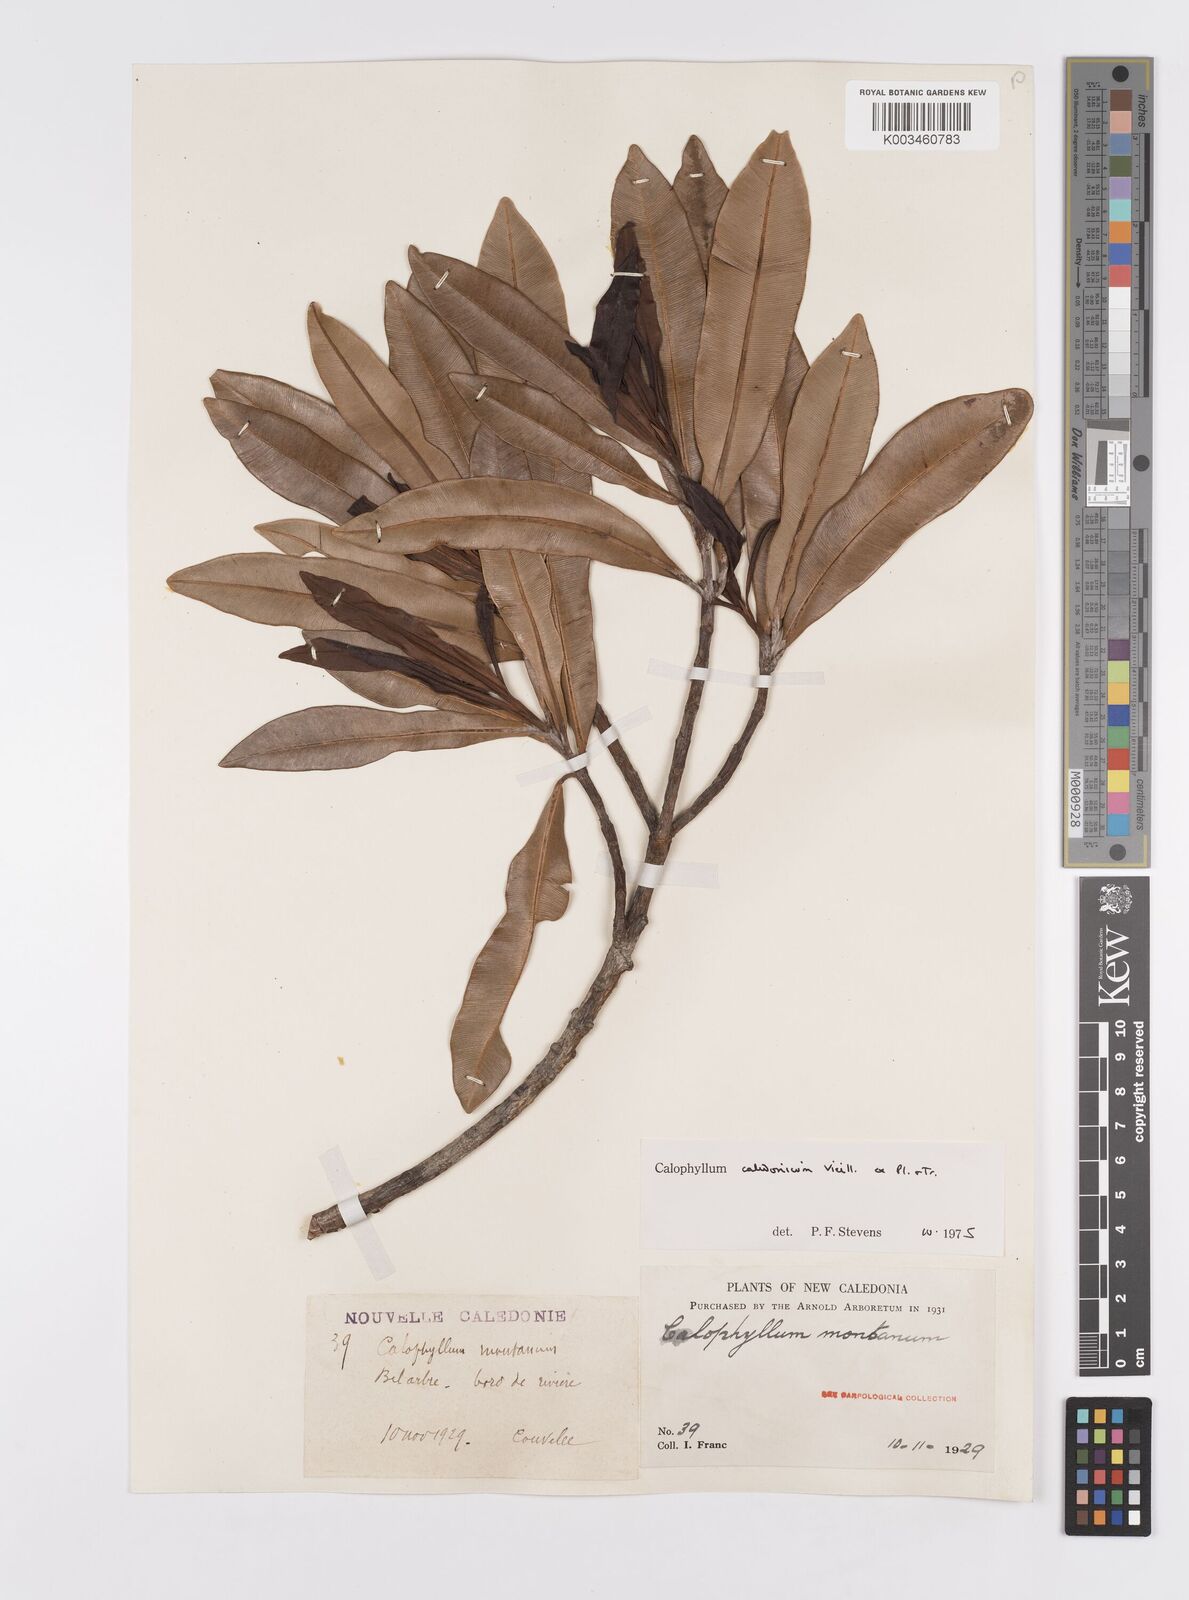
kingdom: Plantae
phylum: Tracheophyta
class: Magnoliopsida
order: Malpighiales
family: Calophyllaceae
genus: Calophyllum
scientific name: Calophyllum caledonicum
